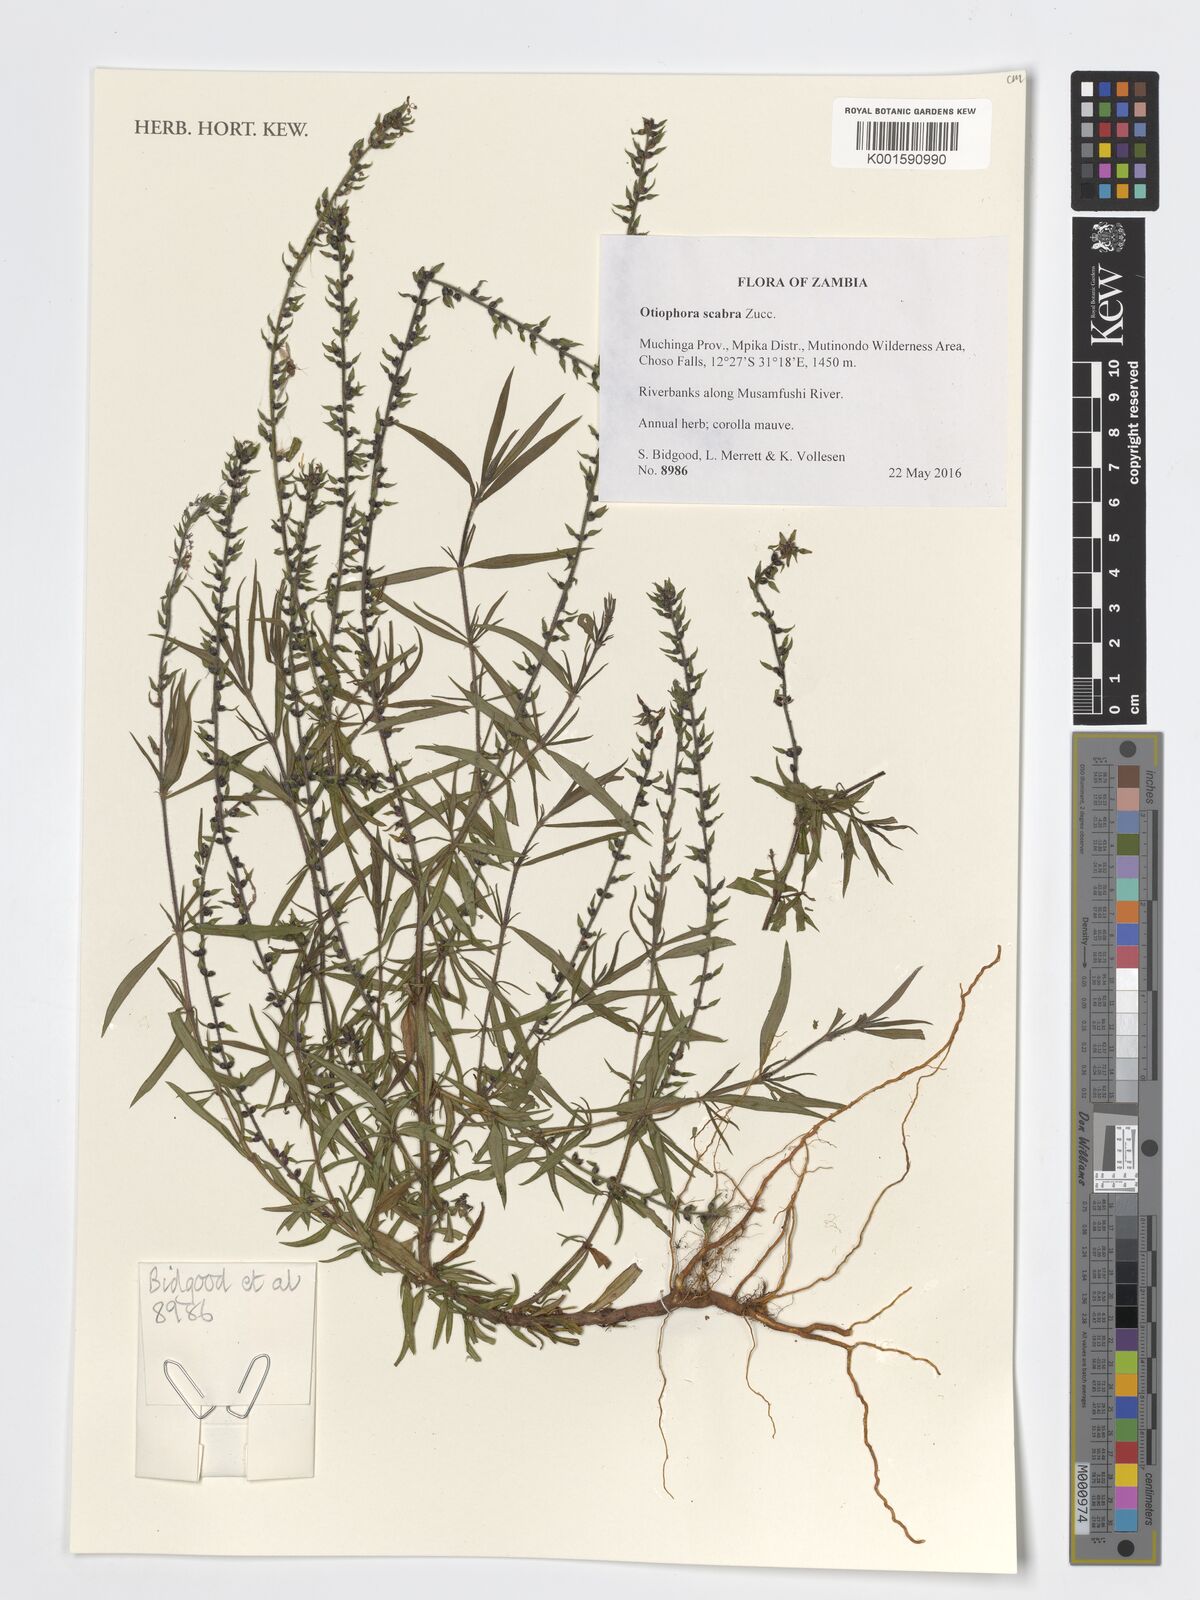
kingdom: Plantae
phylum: Tracheophyta
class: Magnoliopsida
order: Gentianales
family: Rubiaceae
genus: Otiophora
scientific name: Otiophora scabra
